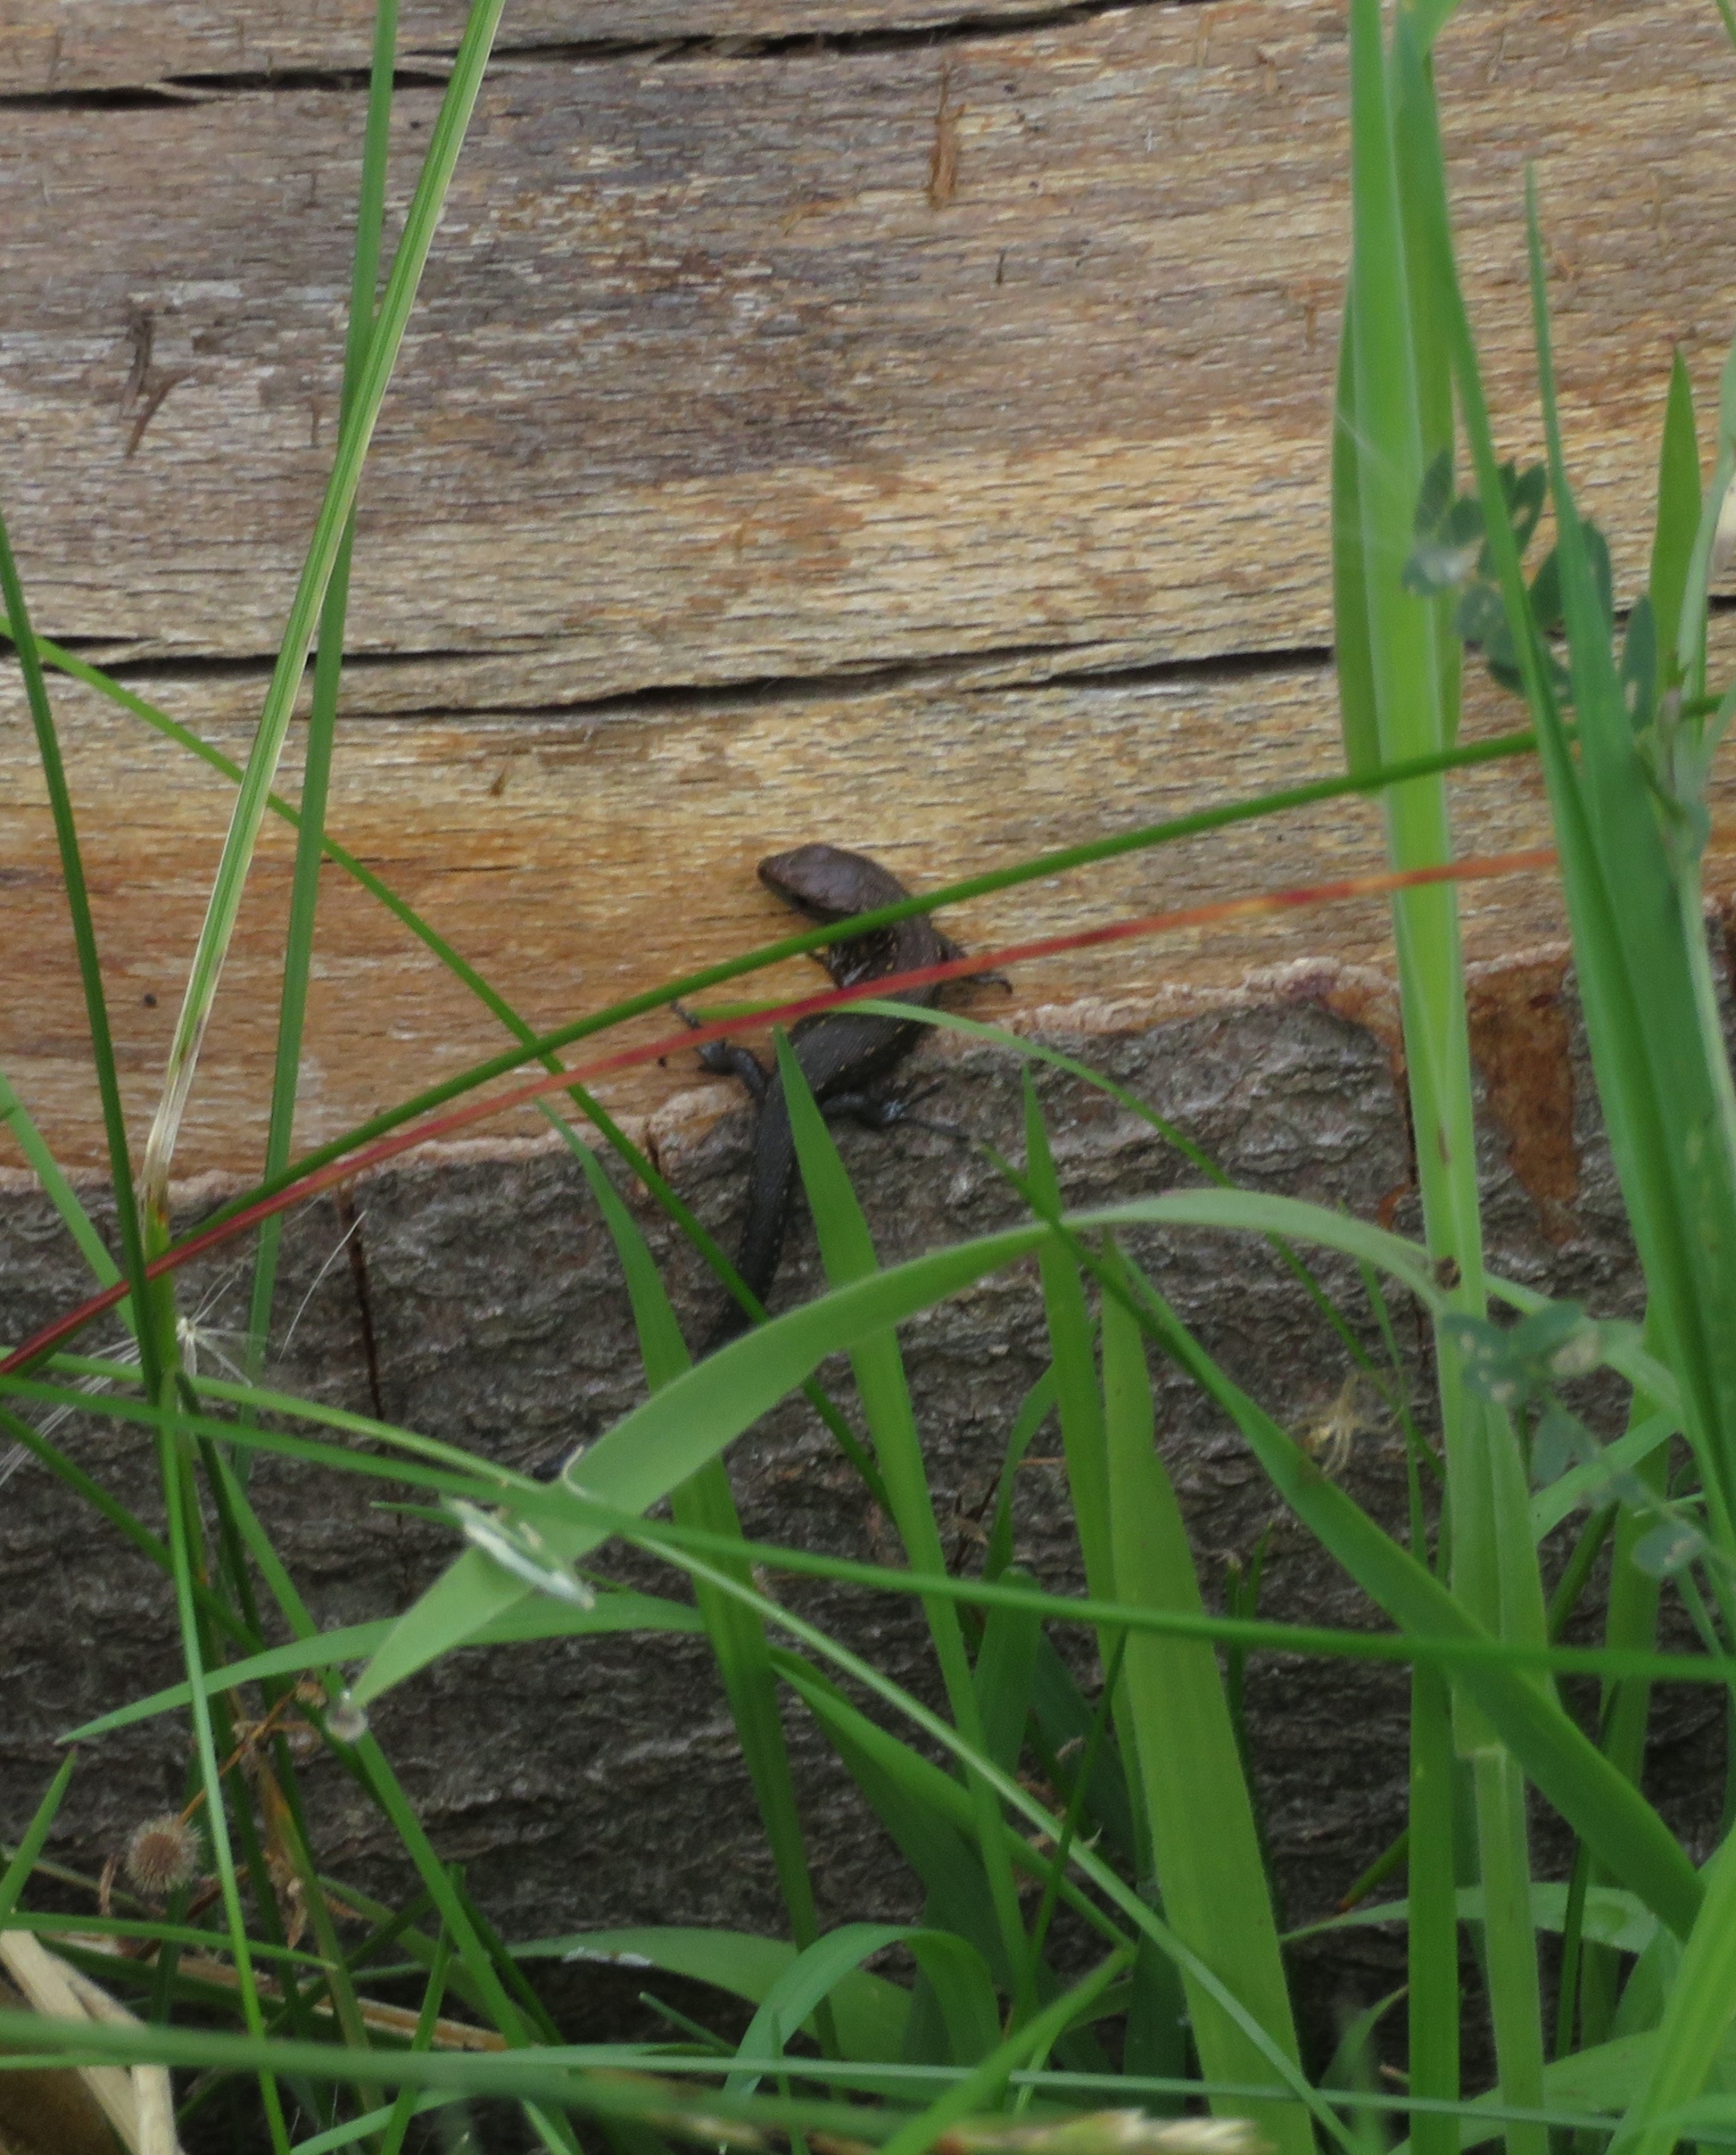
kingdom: Animalia
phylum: Chordata
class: Squamata
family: Lacertidae
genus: Zootoca
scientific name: Zootoca vivipara
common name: Skovfirben
